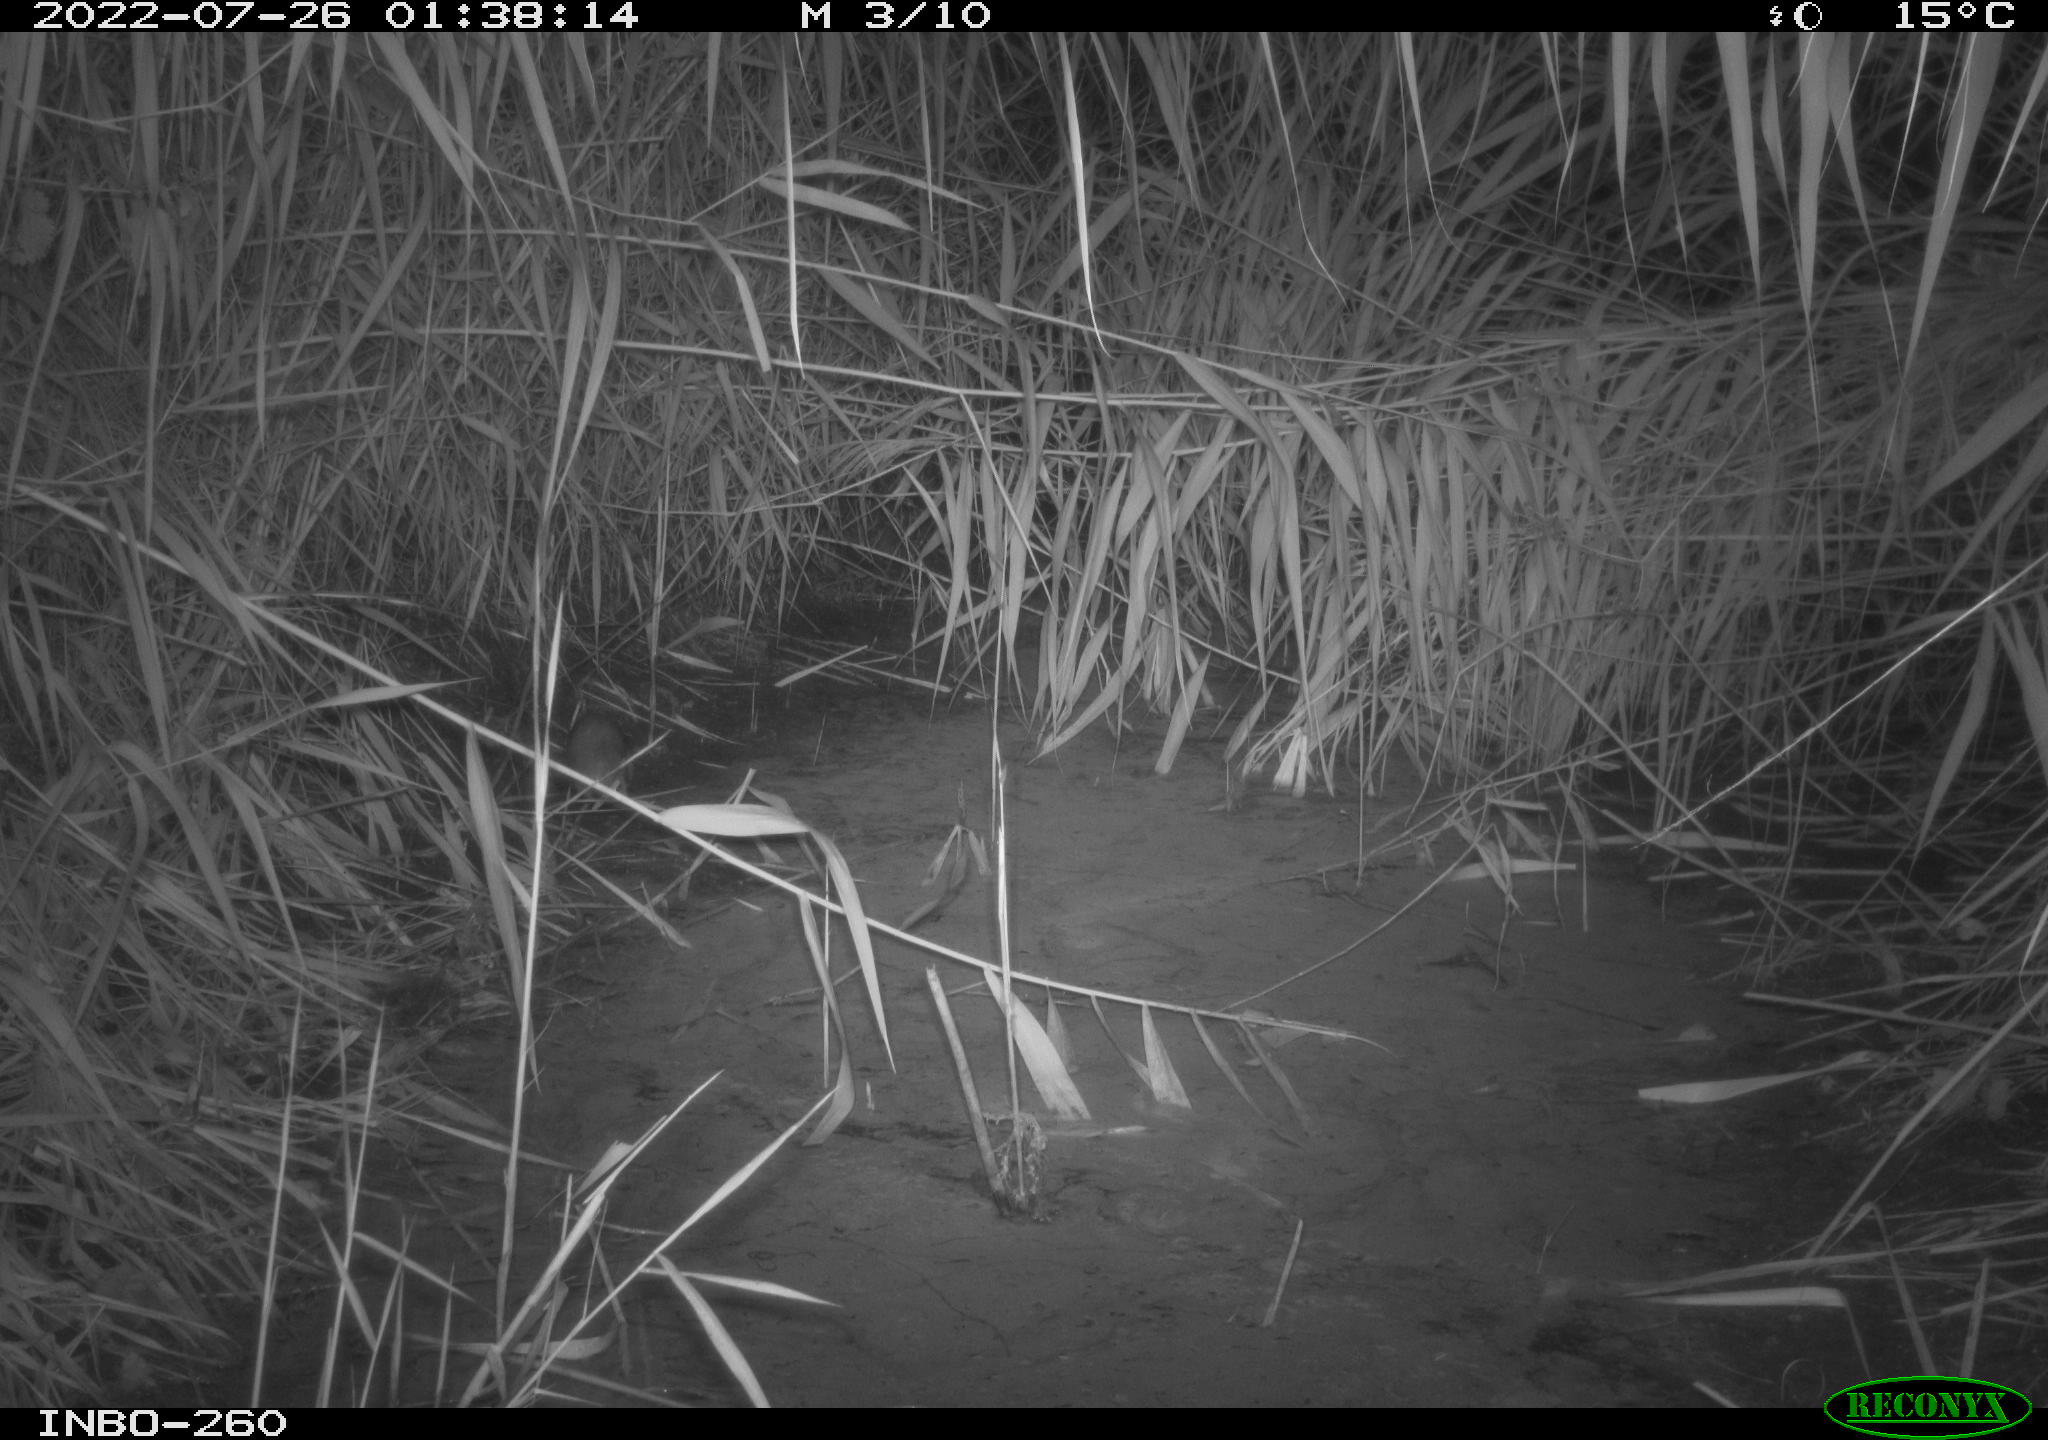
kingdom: Animalia
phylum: Chordata
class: Mammalia
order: Rodentia
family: Muridae
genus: Rattus
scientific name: Rattus norvegicus
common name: Brown rat
